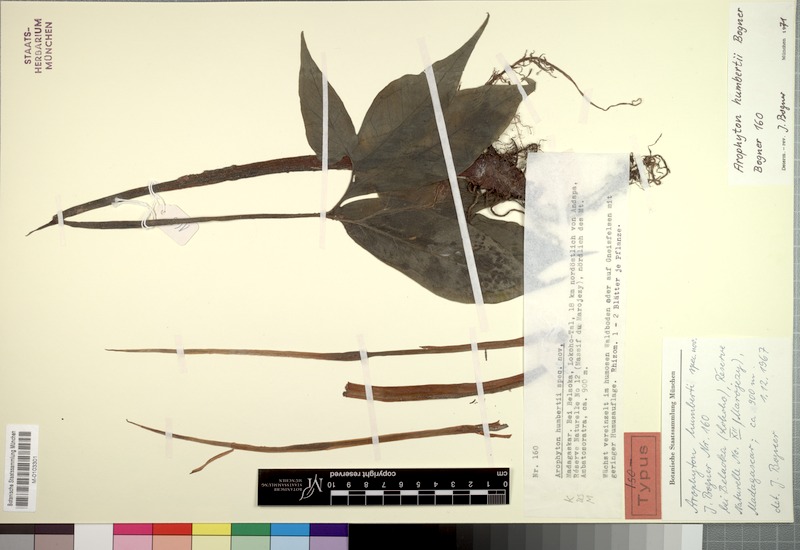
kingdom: Plantae
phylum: Tracheophyta
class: Liliopsida
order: Alismatales
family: Araceae
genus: Arophyton
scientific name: Arophyton humbertii
